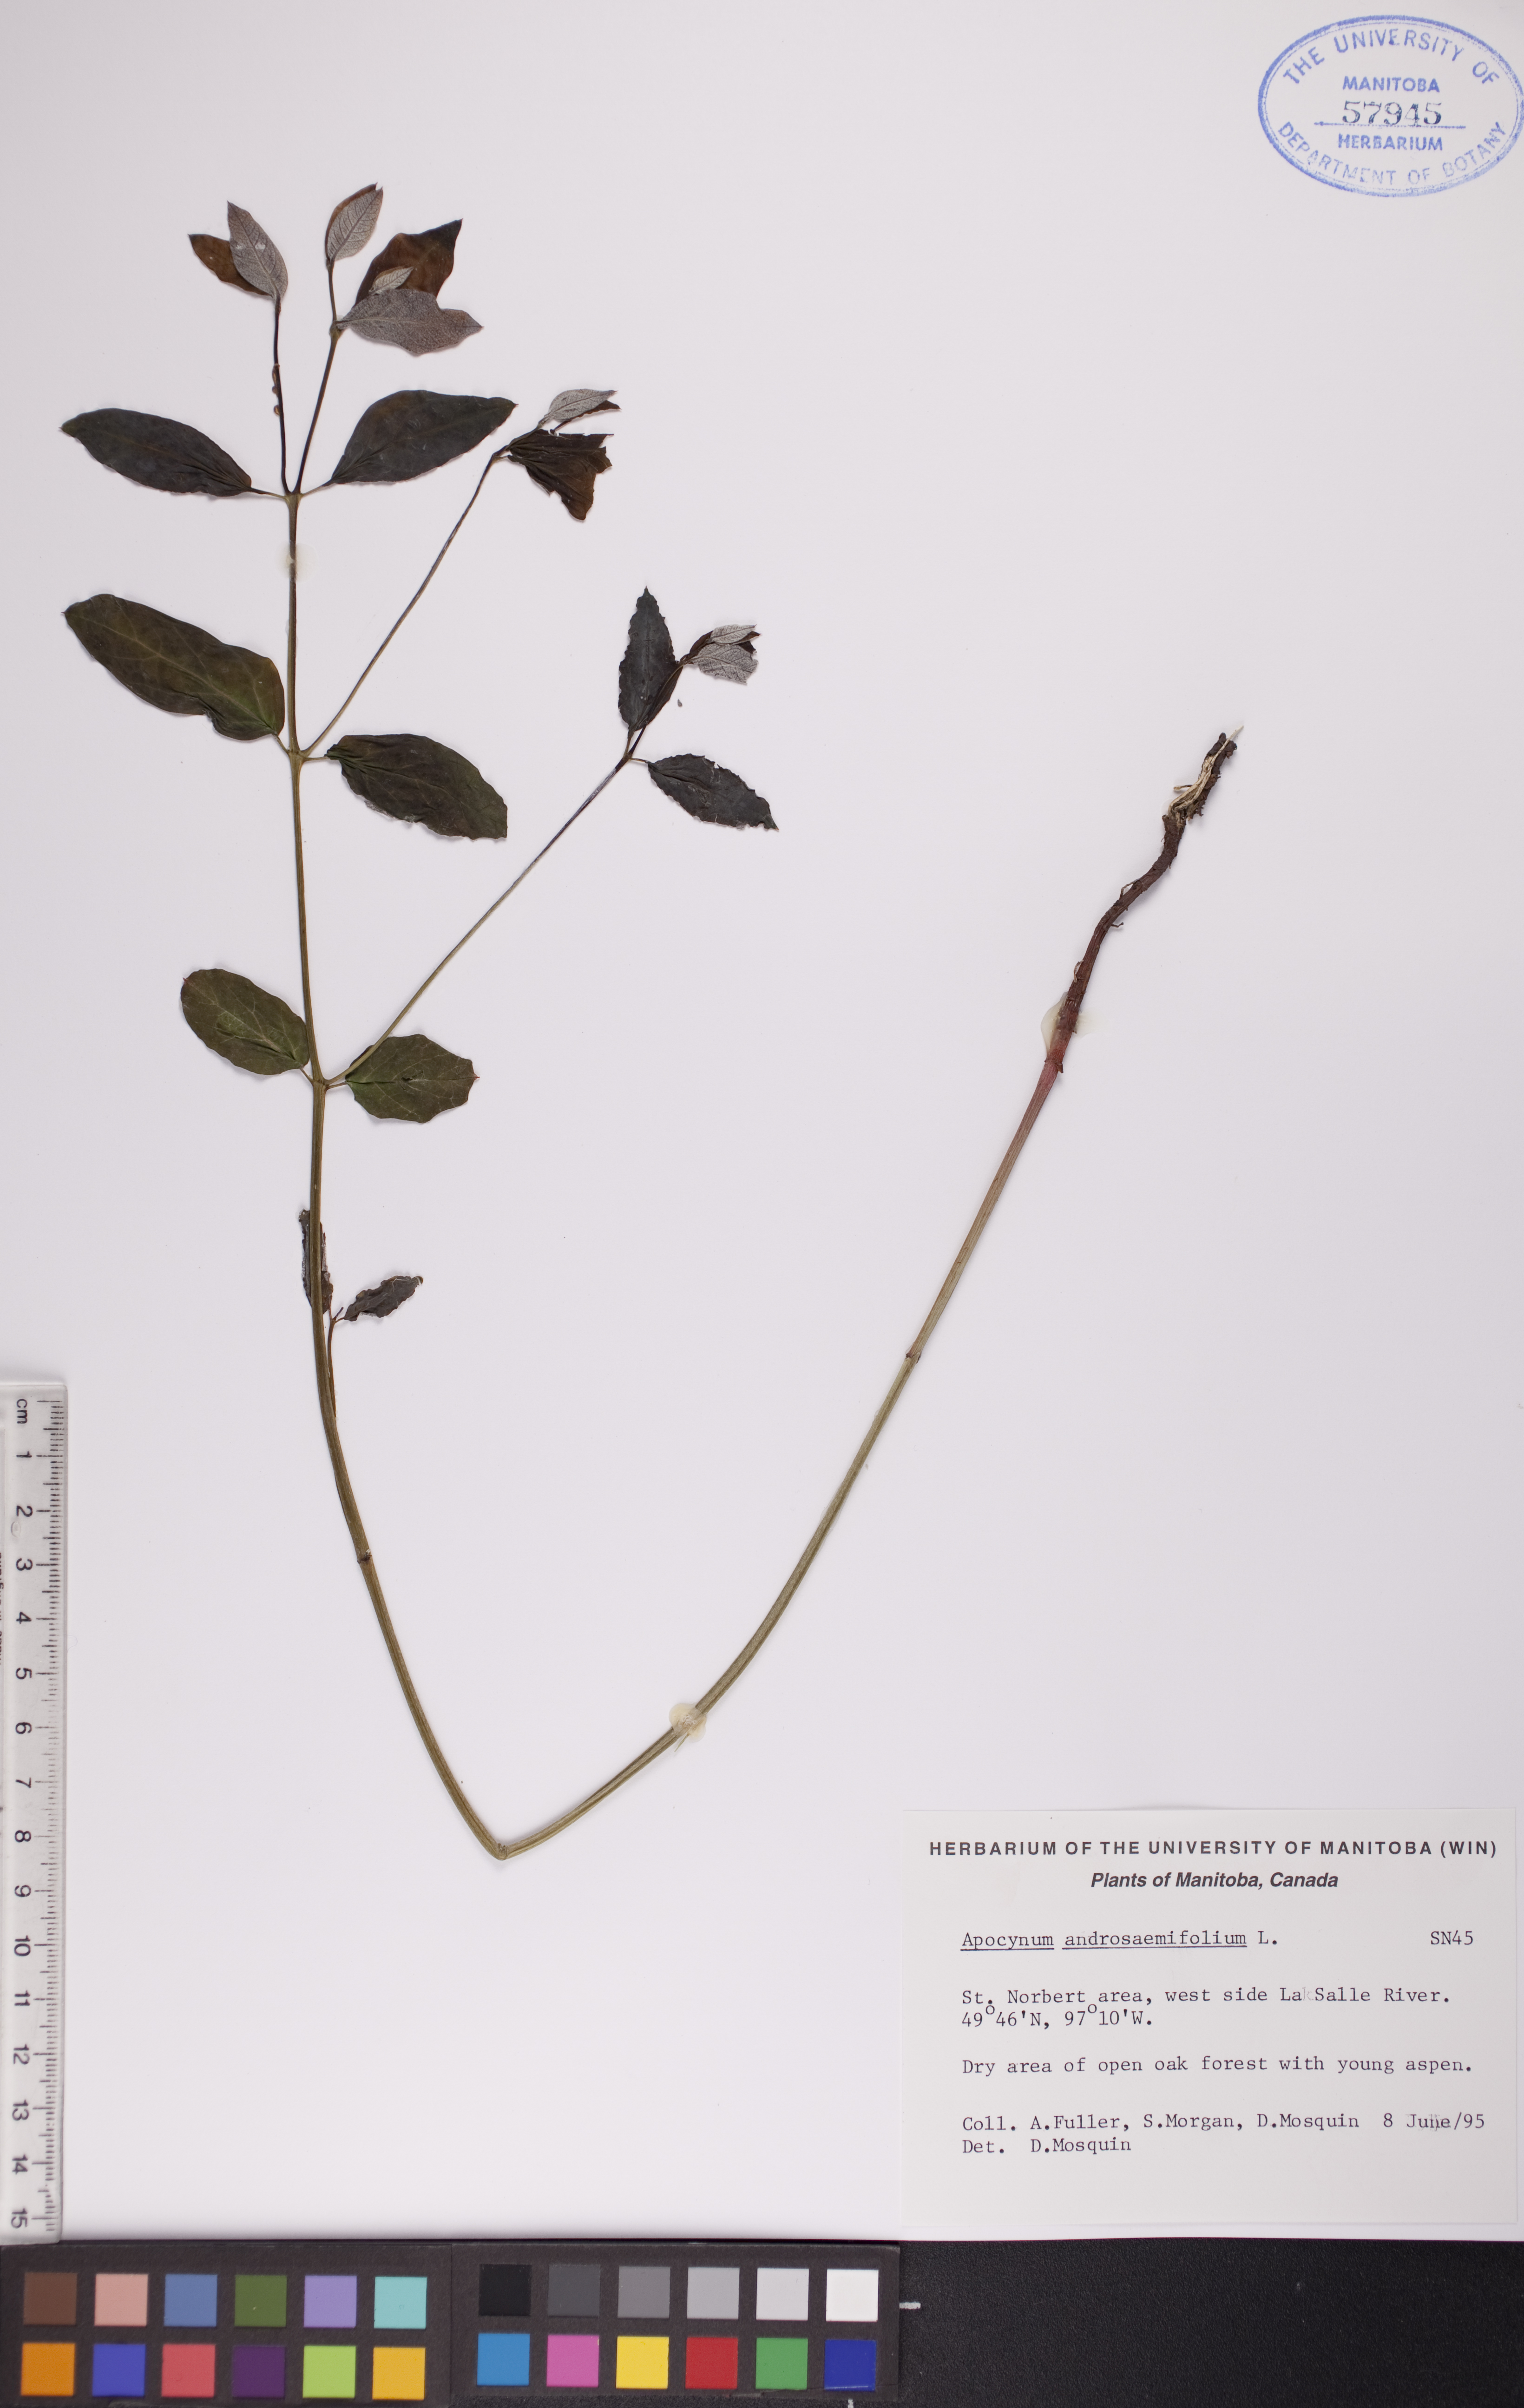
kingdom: Plantae
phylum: Tracheophyta
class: Magnoliopsida
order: Gentianales
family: Apocynaceae
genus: Apocynum
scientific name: Apocynum androsaemifolium
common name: Spreading dogbane
